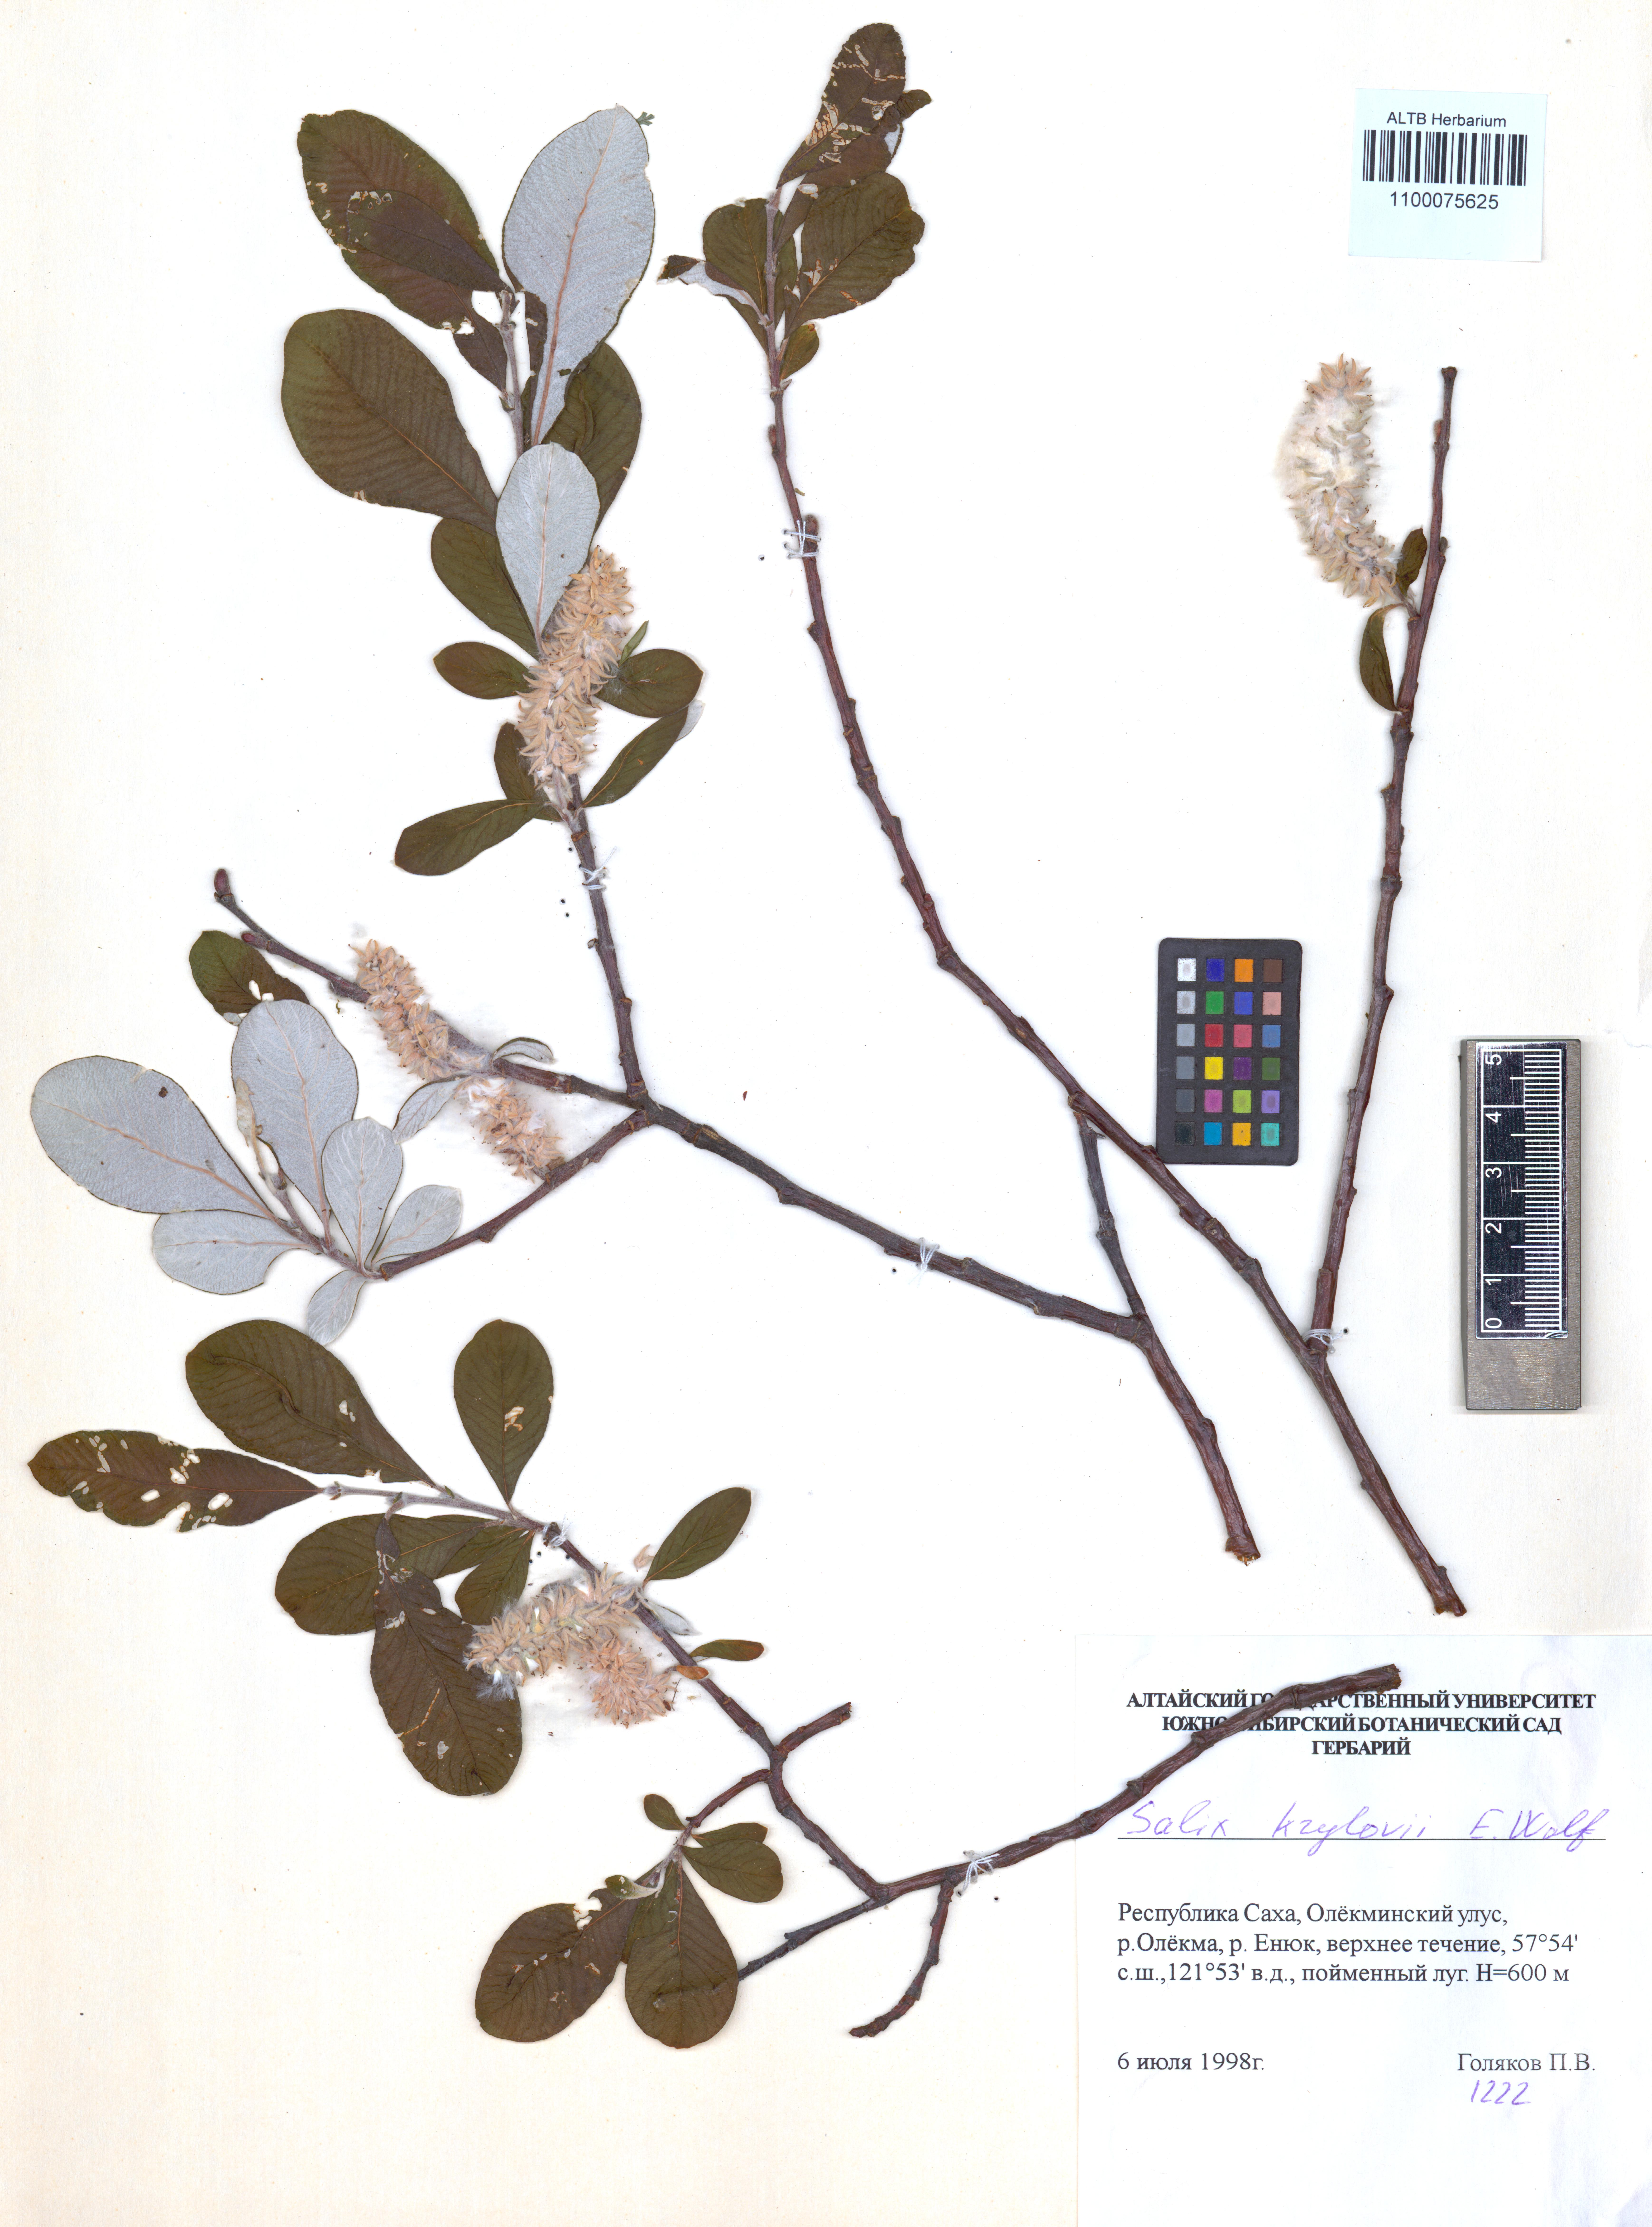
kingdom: Plantae
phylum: Tracheophyta
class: Magnoliopsida
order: Malpighiales
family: Salicaceae
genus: Salix
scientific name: Salix krylovii
